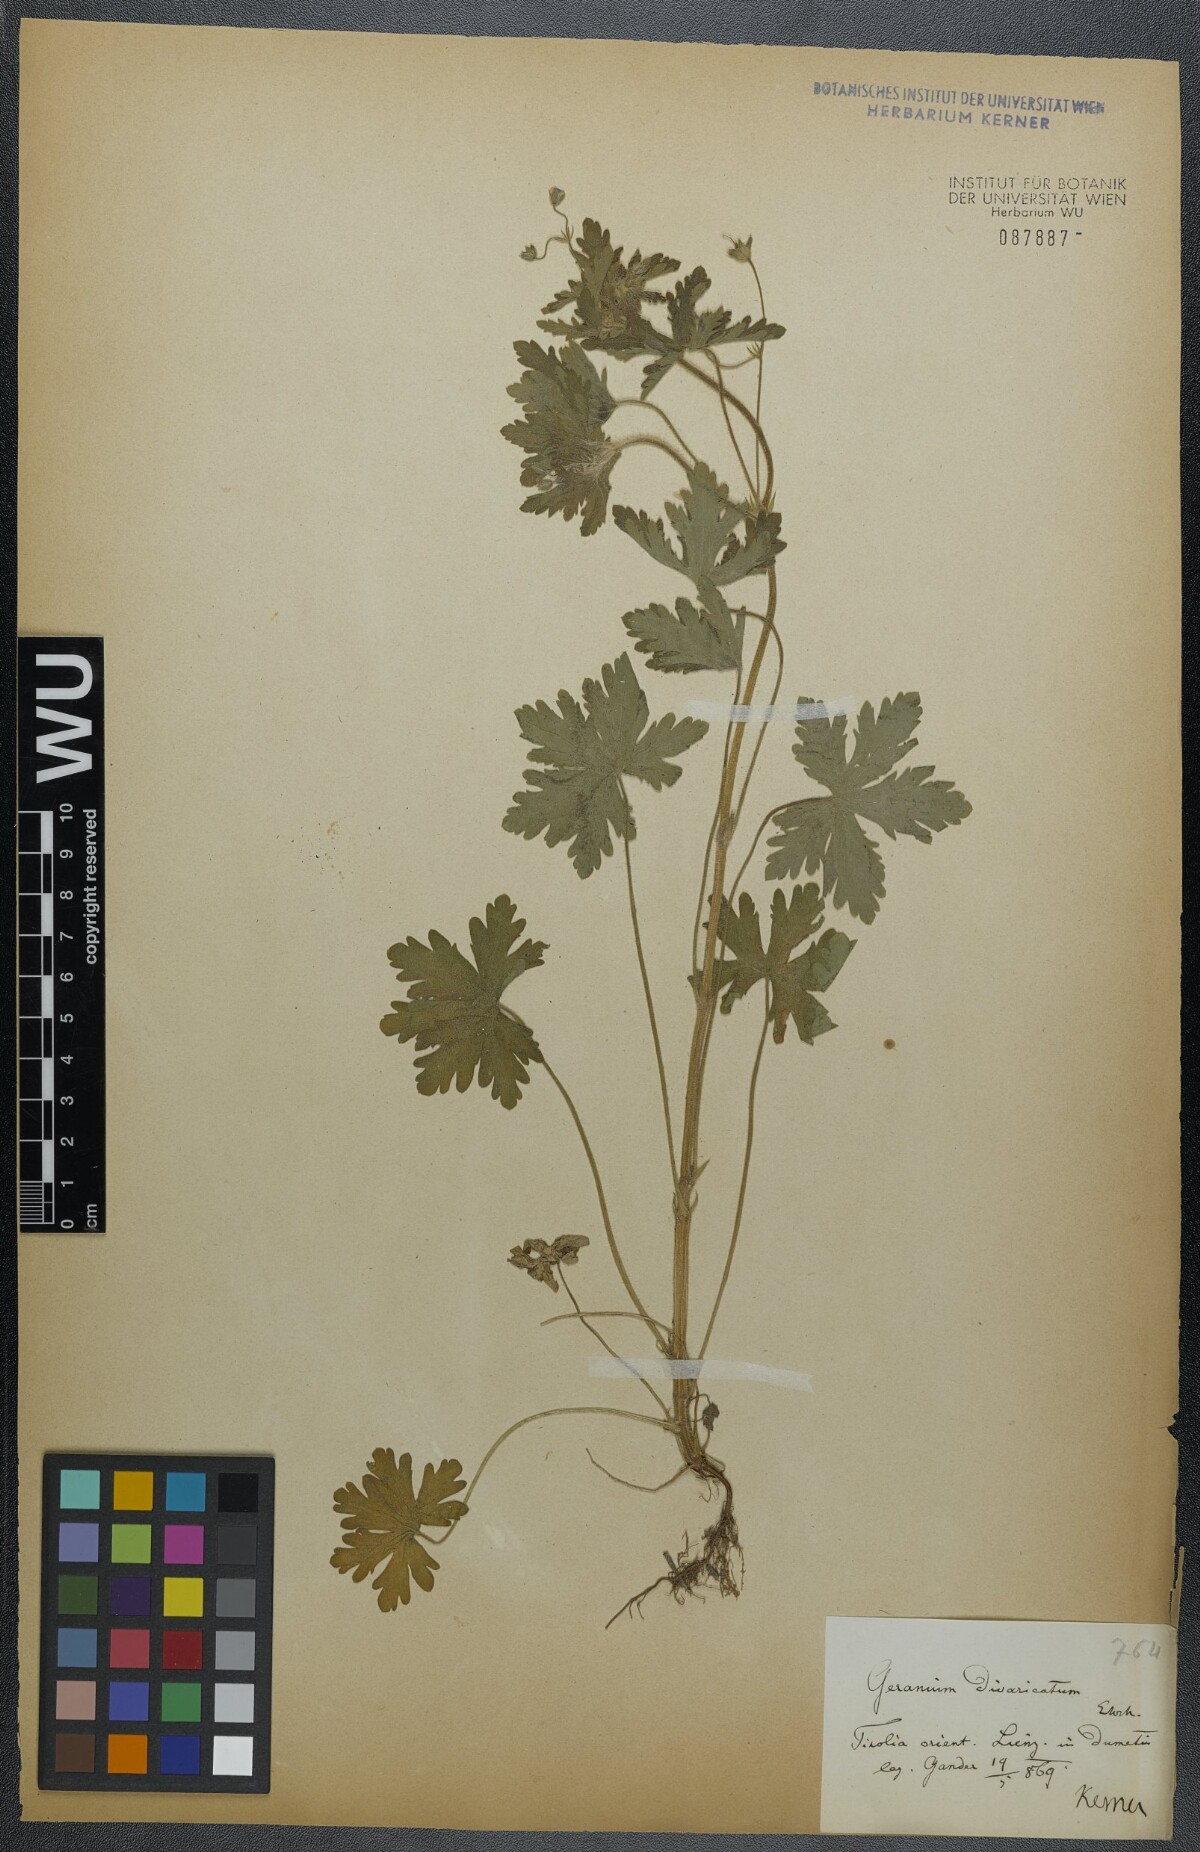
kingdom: Plantae
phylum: Tracheophyta
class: Magnoliopsida
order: Geraniales
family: Geraniaceae
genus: Geranium
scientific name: Geranium divaricatum
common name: Spreading crane's-bill
